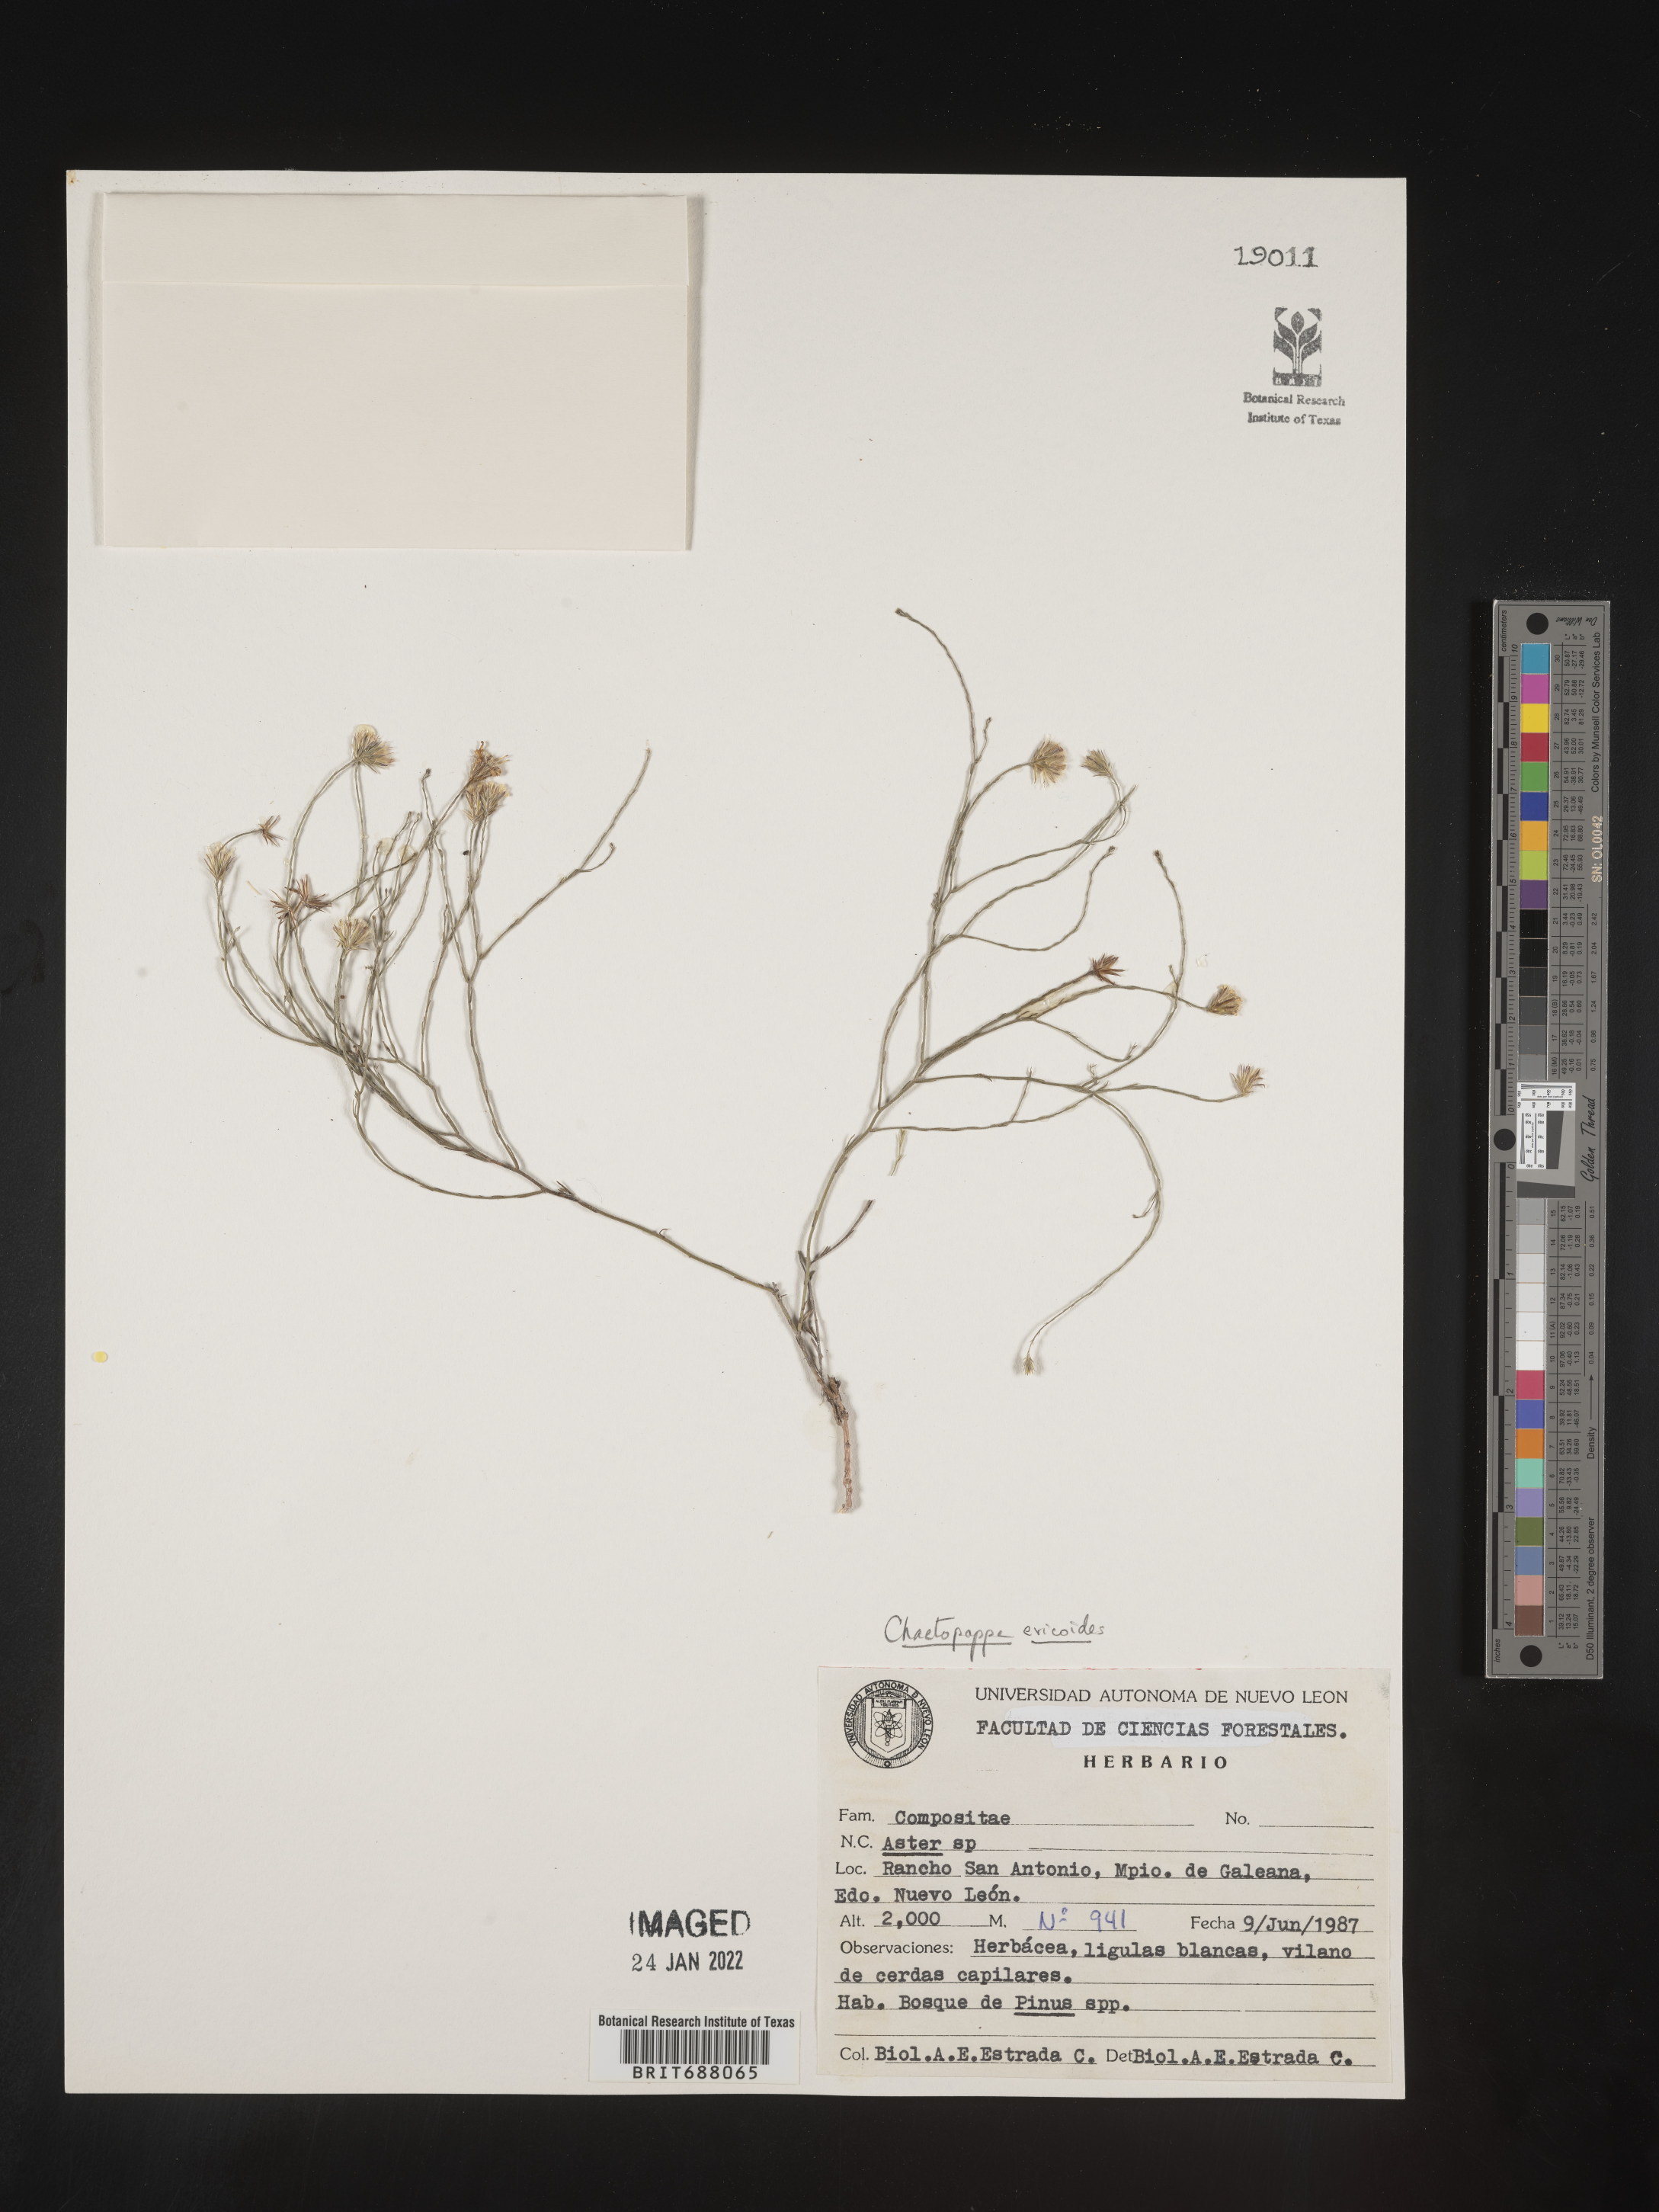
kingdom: Plantae
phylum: Tracheophyta
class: Magnoliopsida
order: Asterales
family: Asteraceae
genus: Chaetopappa
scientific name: Chaetopappa
